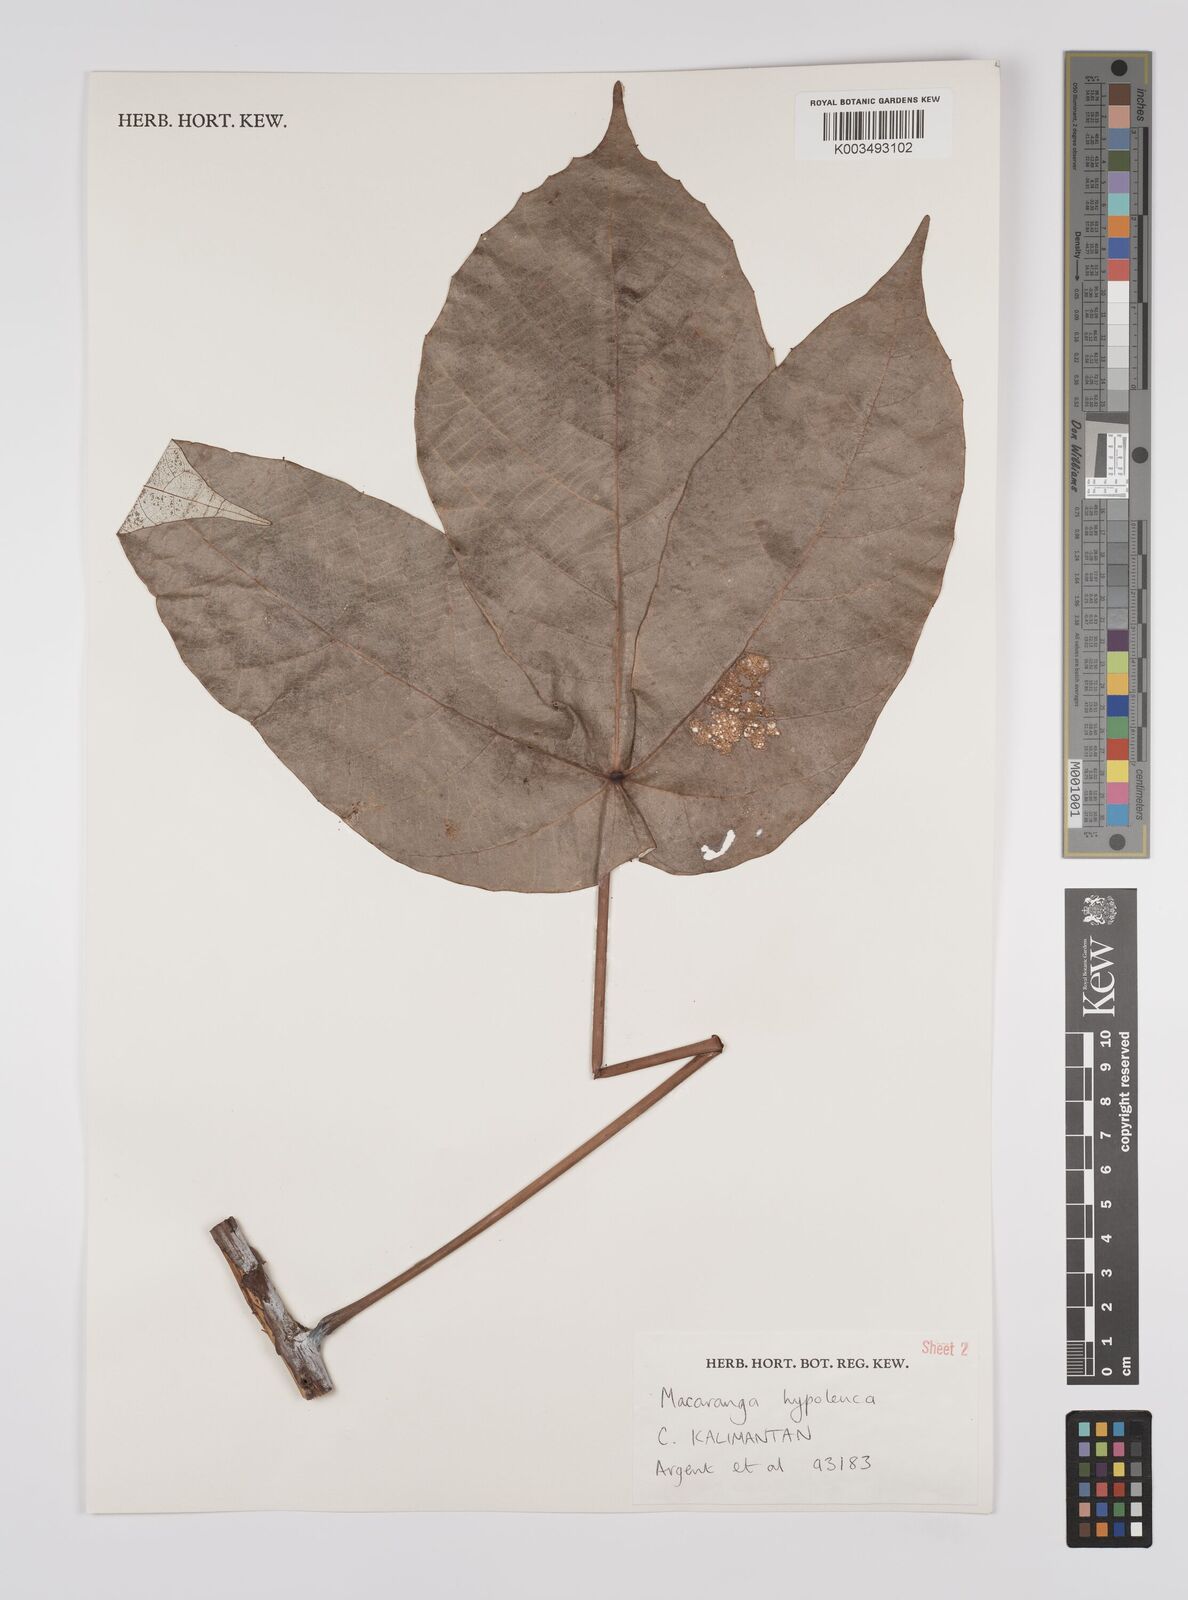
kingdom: Plantae
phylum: Tracheophyta
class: Magnoliopsida
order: Malpighiales
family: Euphorbiaceae
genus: Macaranga
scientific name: Macaranga hypoleuca
